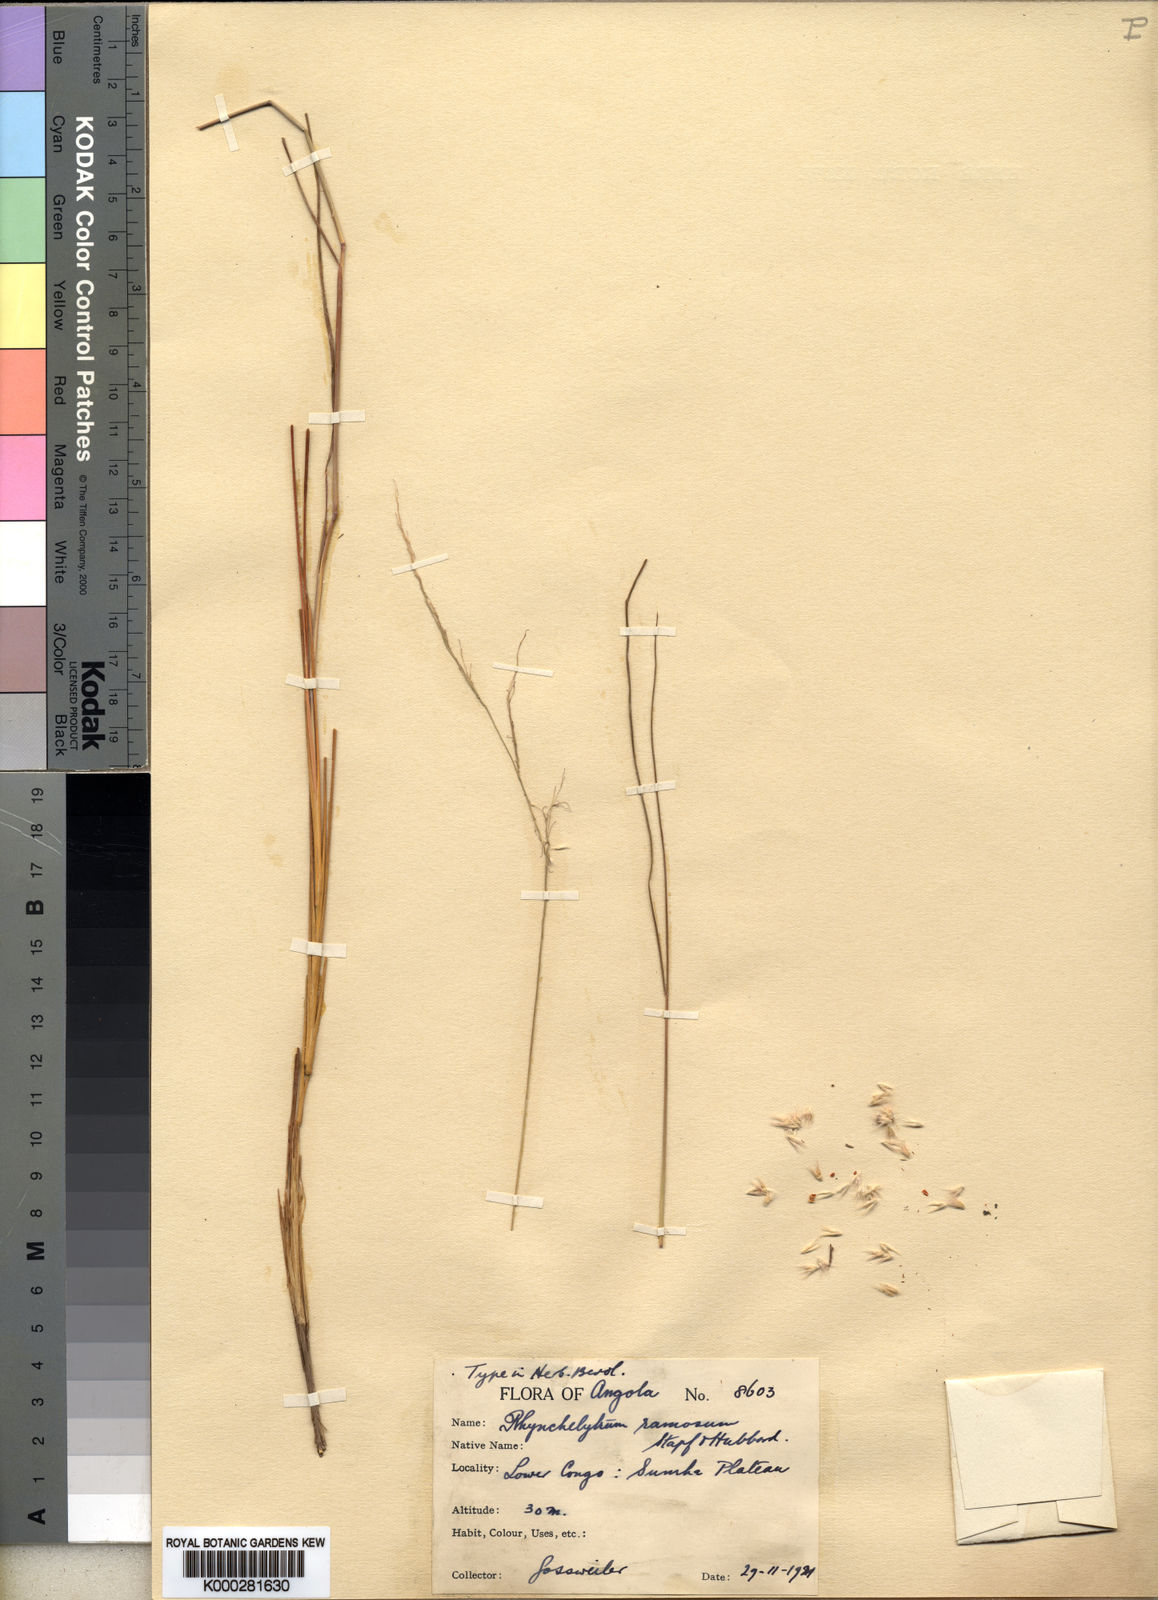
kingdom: Plantae
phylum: Tracheophyta
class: Liliopsida
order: Poales
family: Poaceae
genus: Melinis
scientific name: Melinis nerviglumis
